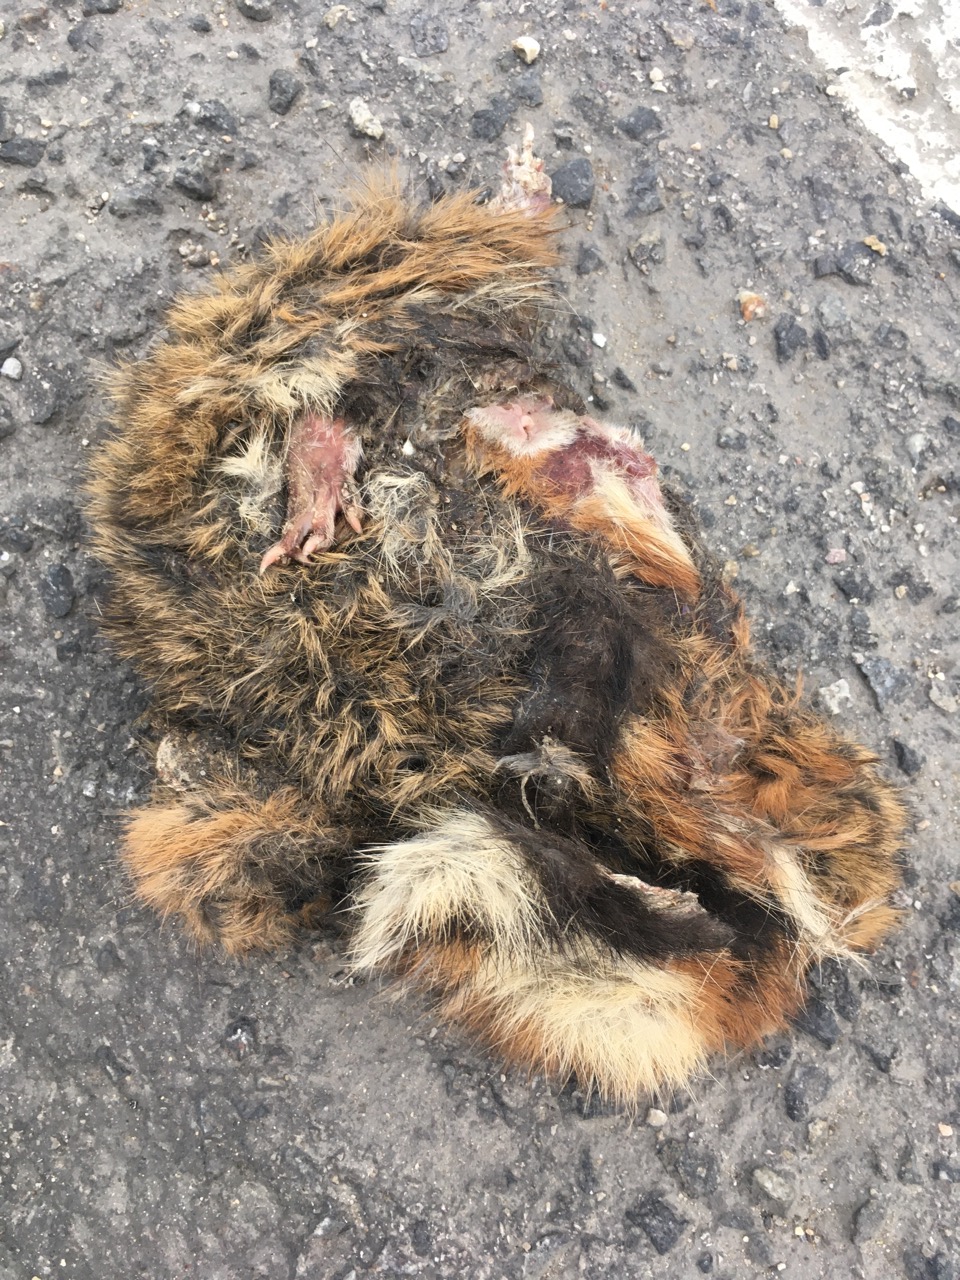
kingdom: Animalia
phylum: Chordata
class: Mammalia
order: Rodentia
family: Cricetidae
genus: Cricetus
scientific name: Cricetus cricetus
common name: Common hamster
